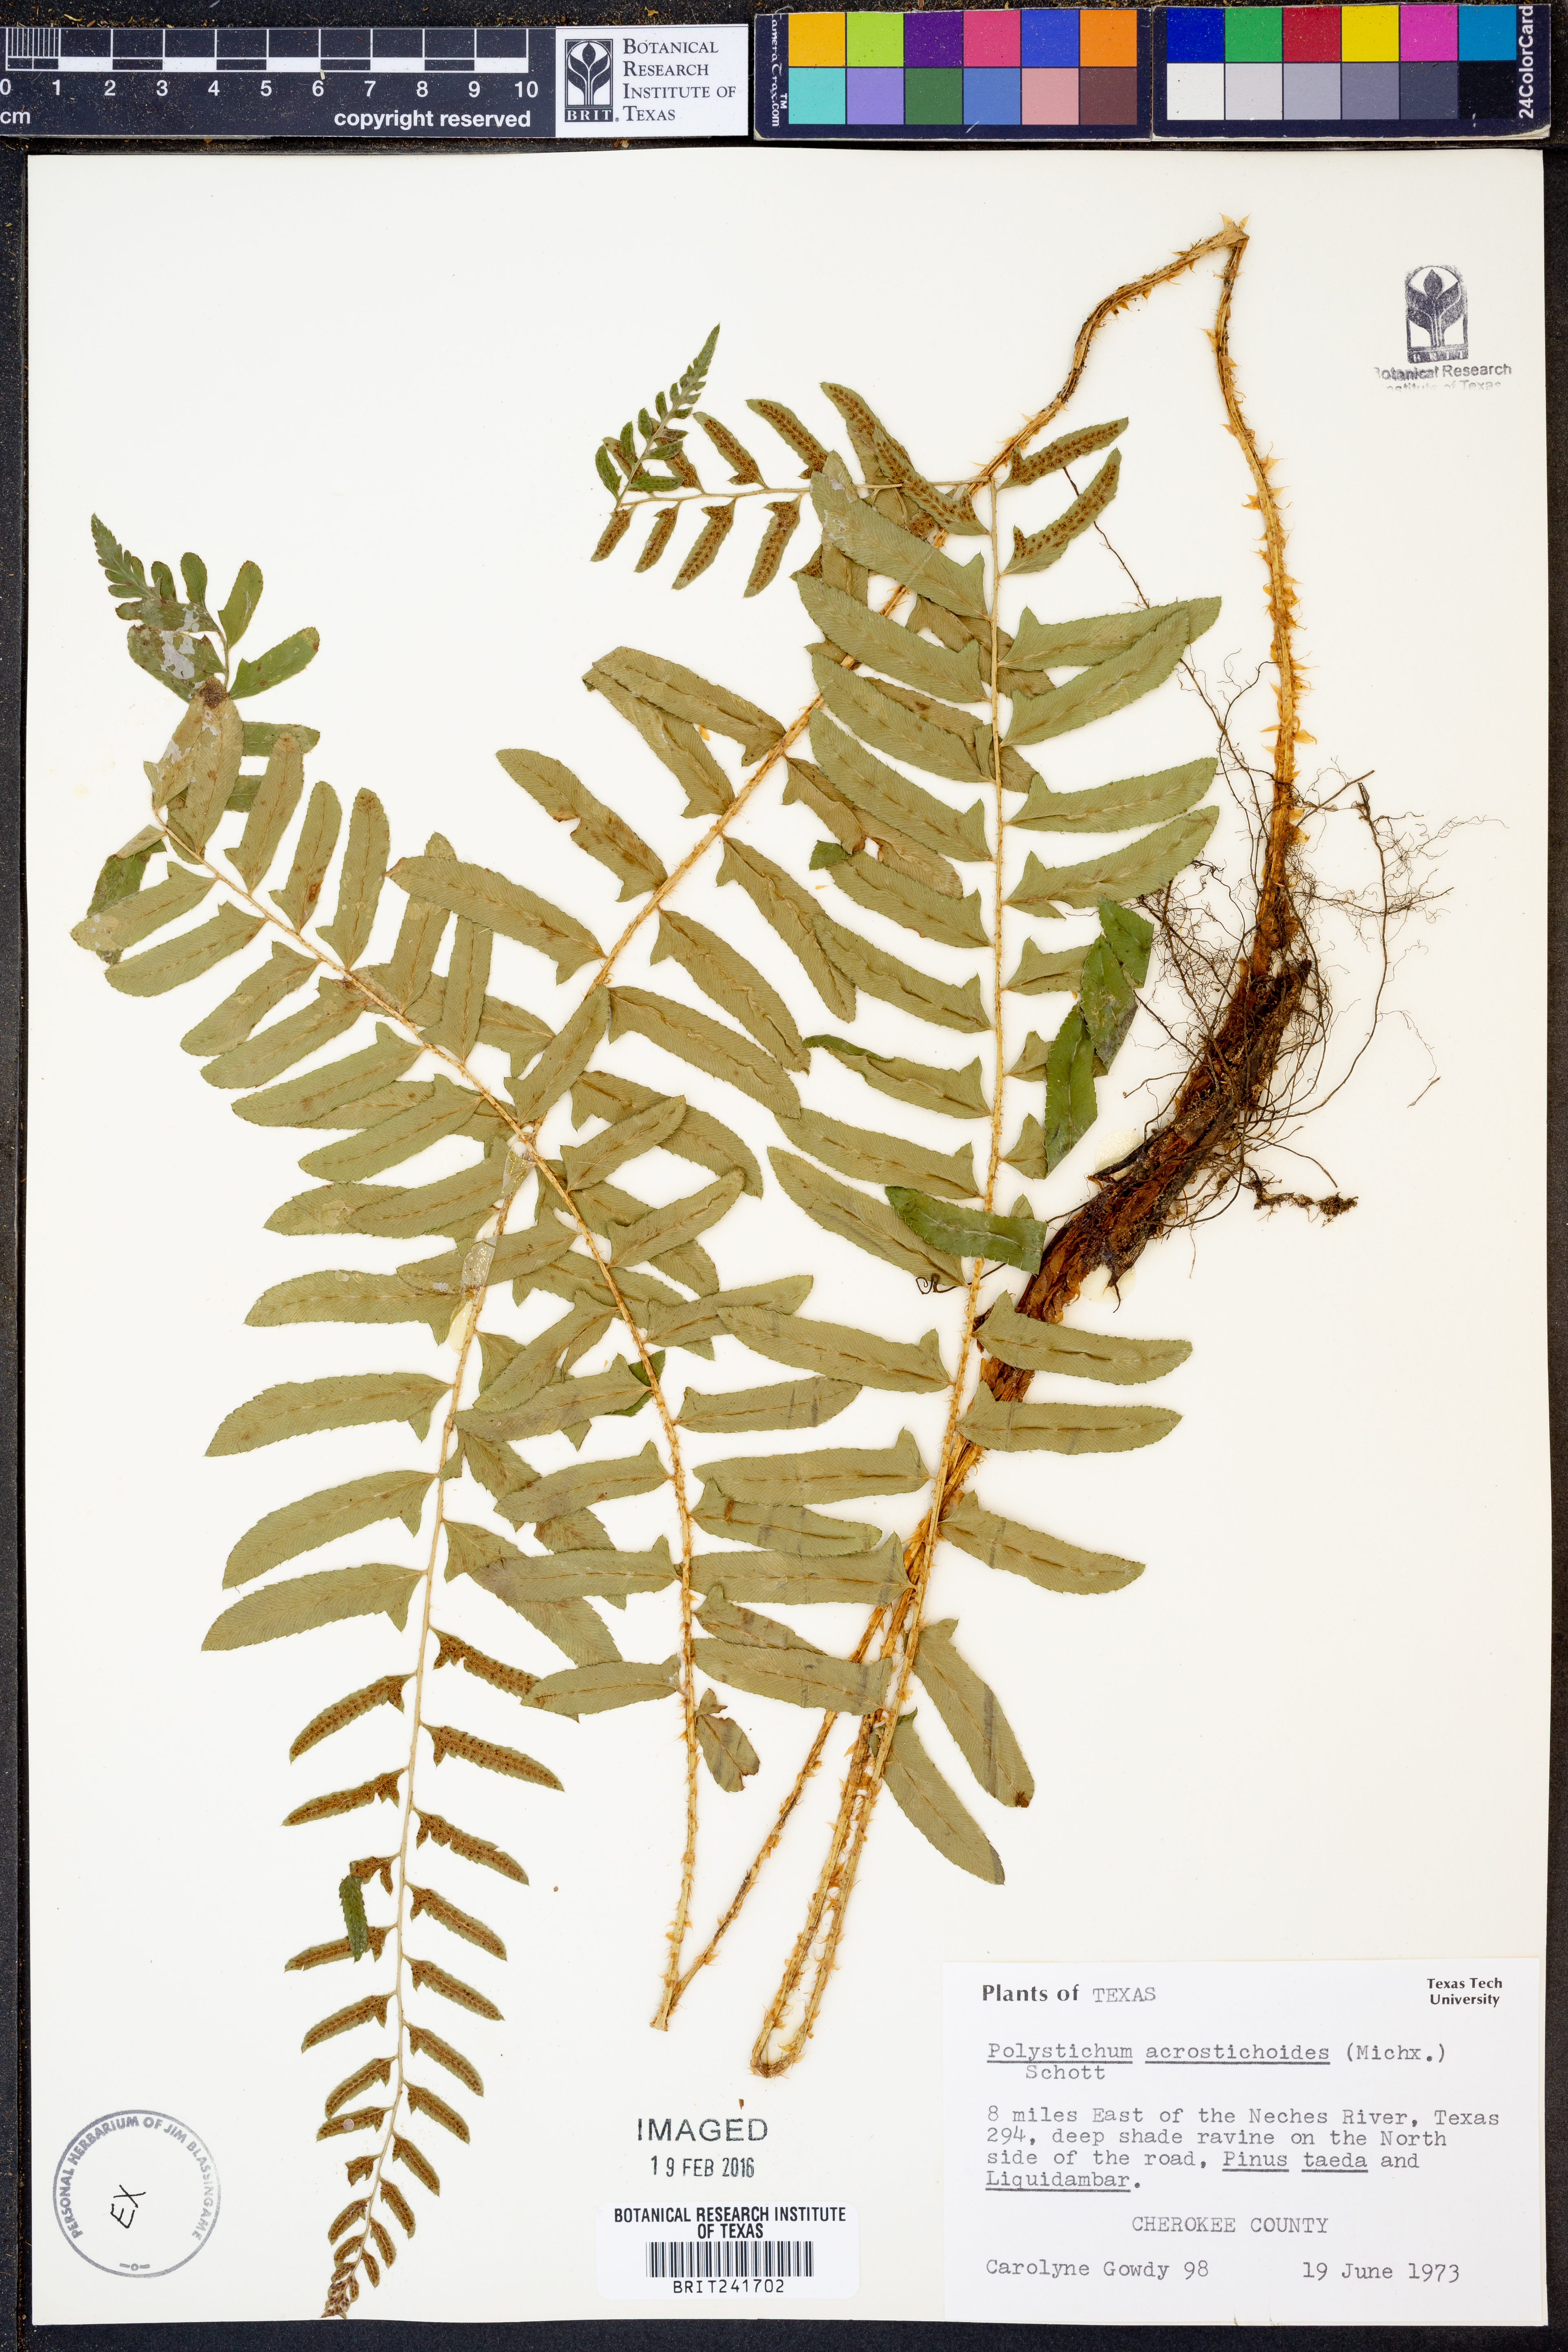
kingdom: Plantae
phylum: Tracheophyta
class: Polypodiopsida
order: Polypodiales
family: Dryopteridaceae
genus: Polystichum
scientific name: Polystichum acrostichoides
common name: Christmas fern
